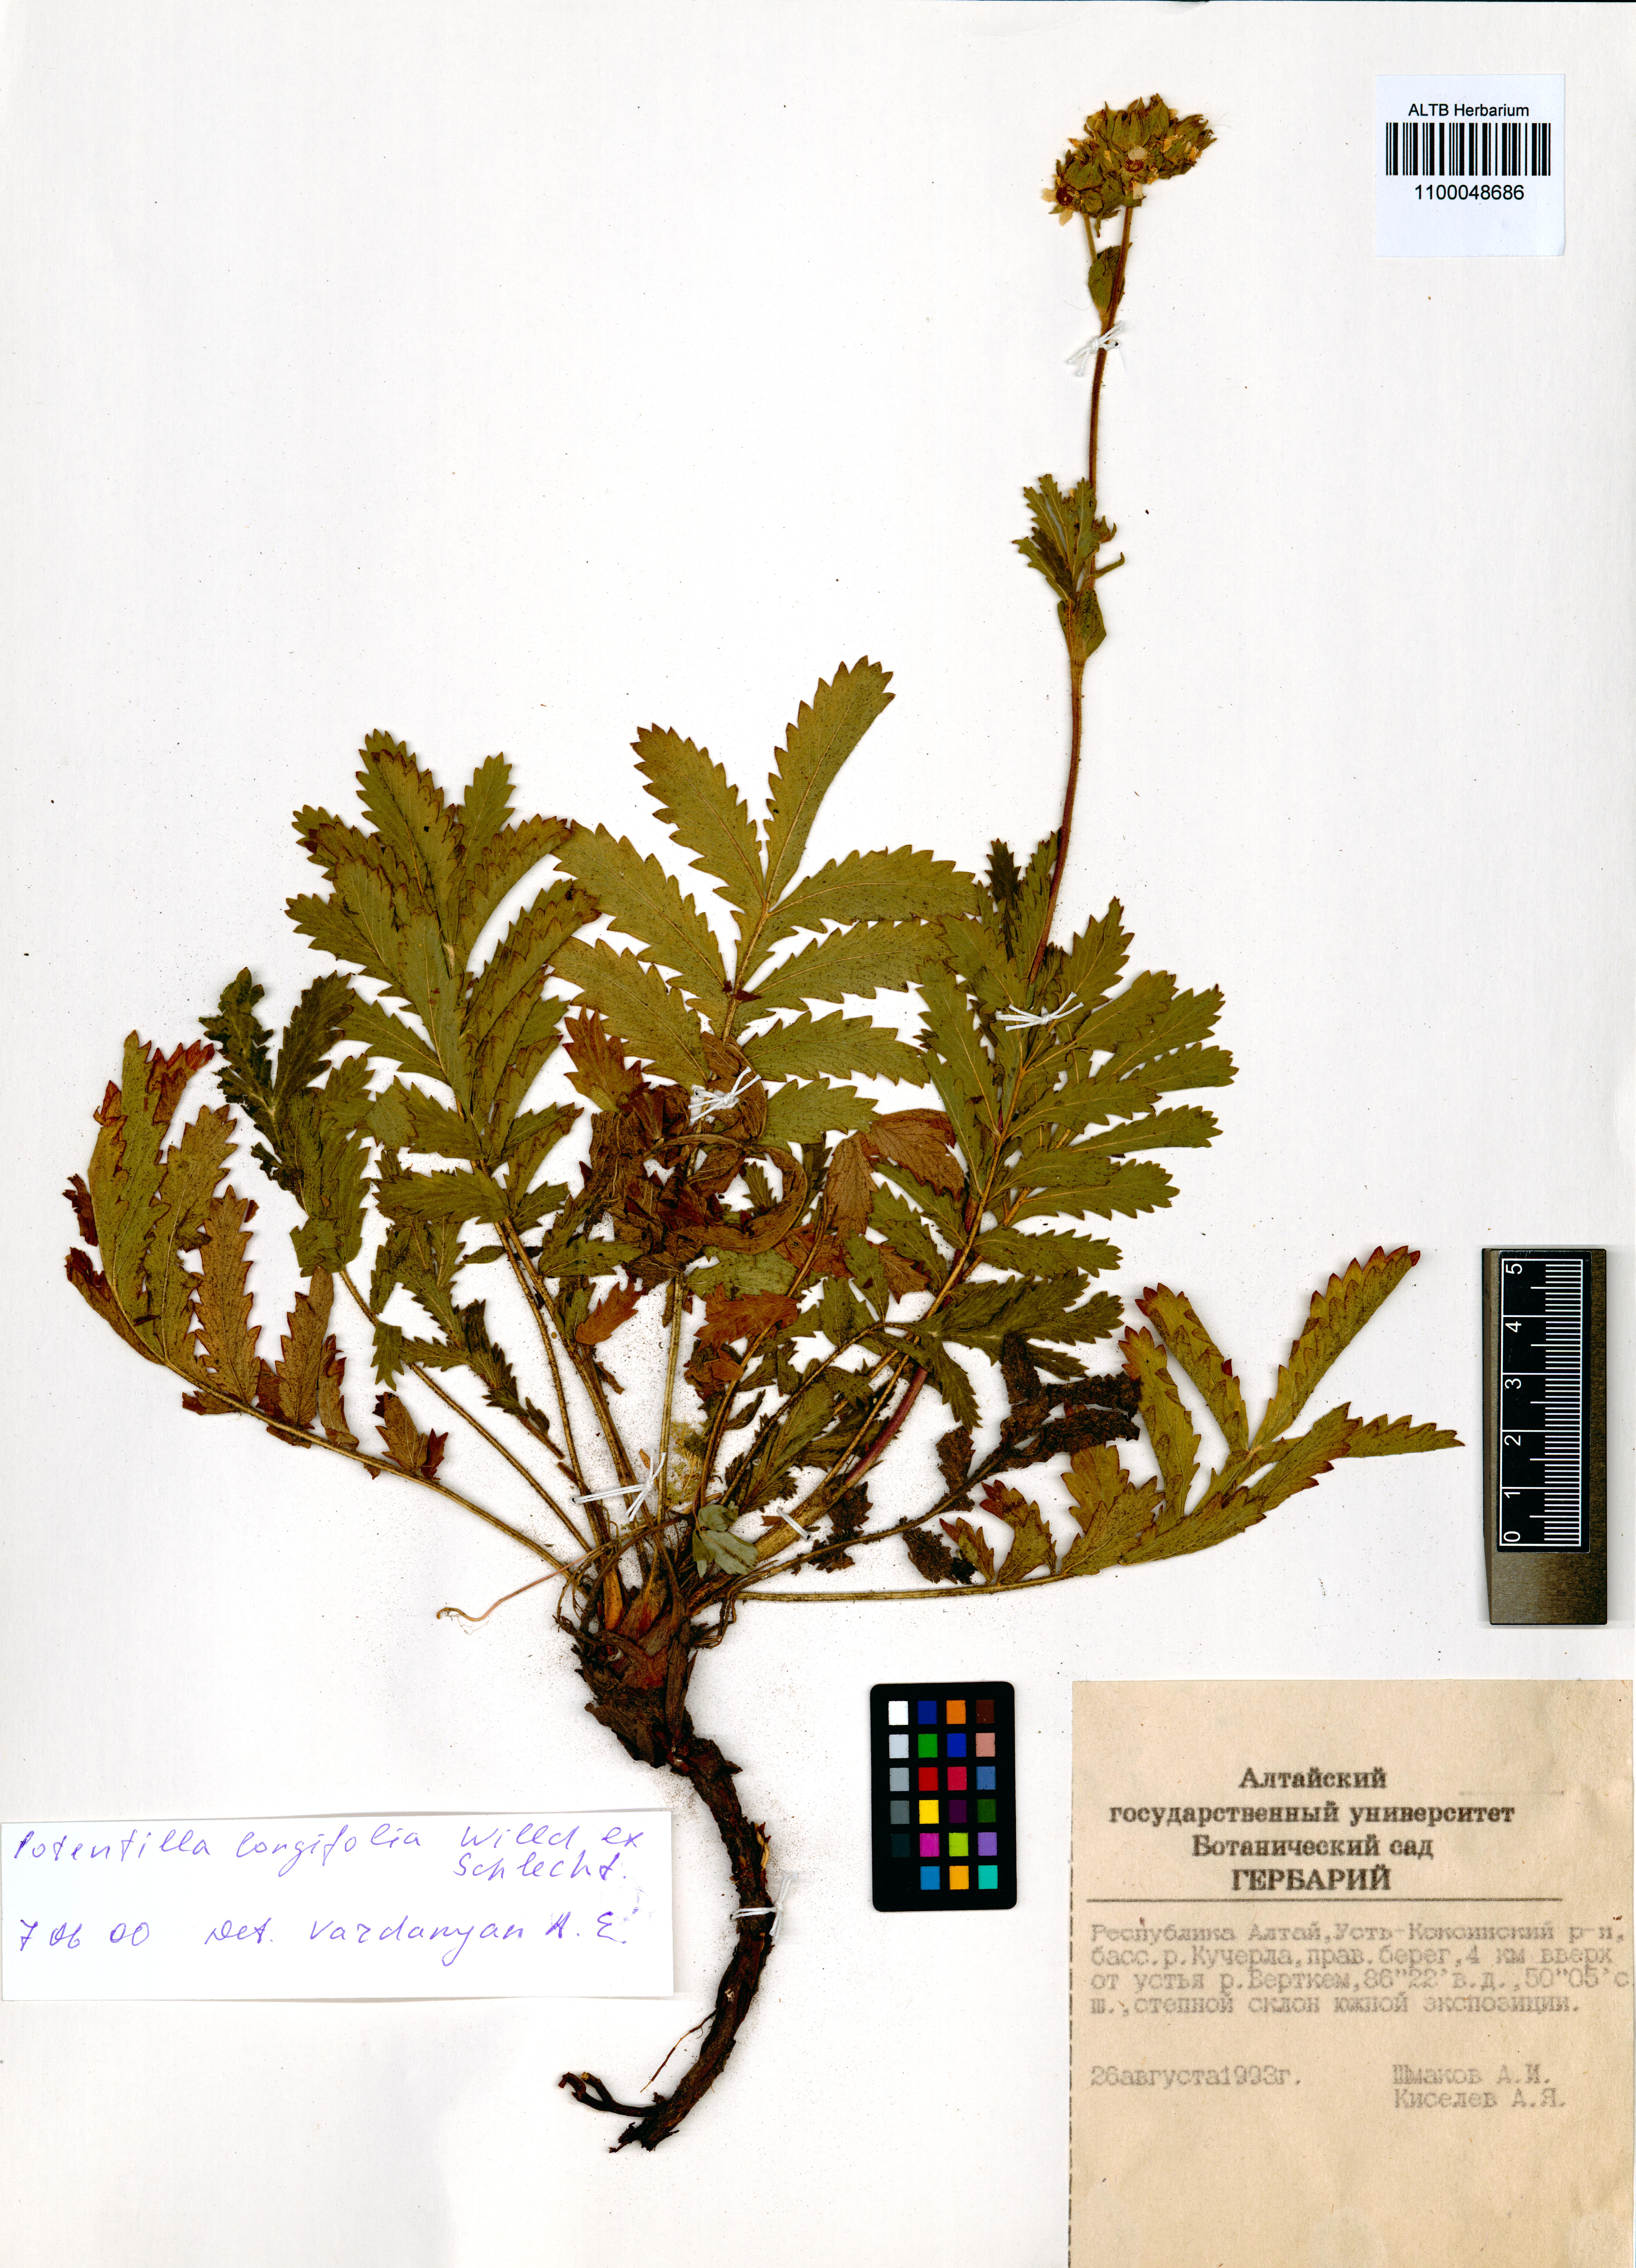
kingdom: Plantae
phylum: Tracheophyta
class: Magnoliopsida
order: Rosales
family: Rosaceae
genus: Potentilla
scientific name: Potentilla longifolia
